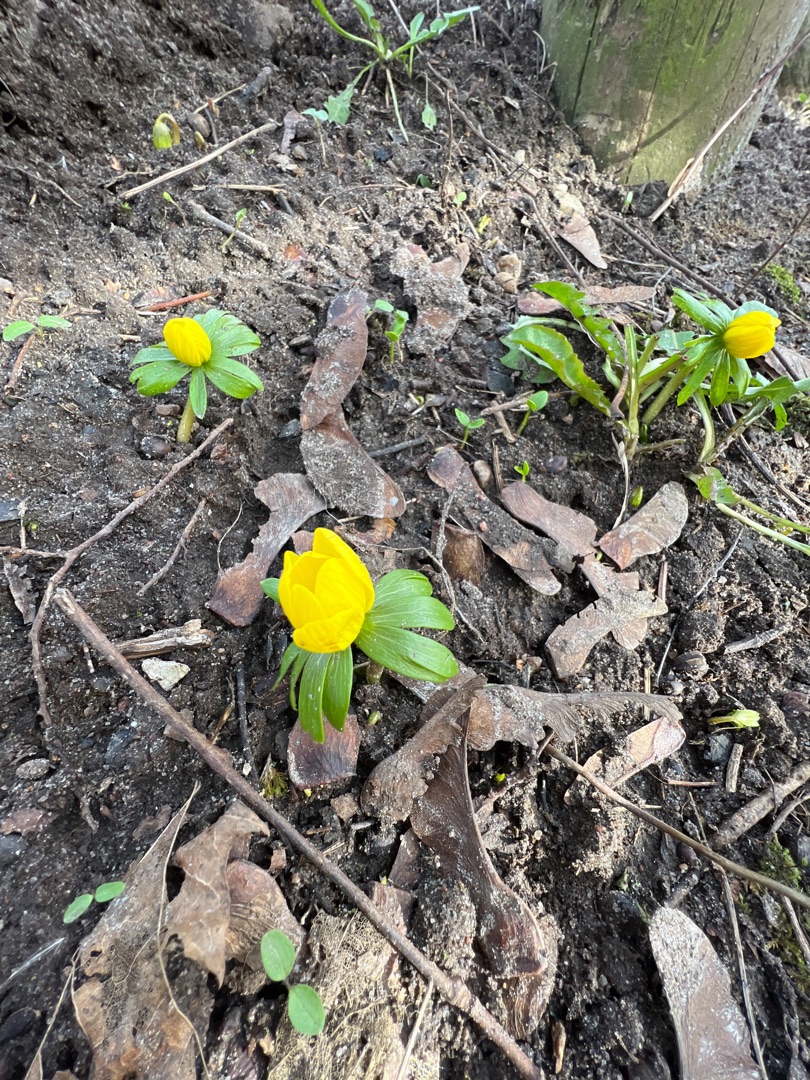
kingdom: Plantae
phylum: Tracheophyta
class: Magnoliopsida
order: Ranunculales
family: Ranunculaceae
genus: Eranthis
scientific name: Eranthis hyemalis
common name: Erantis
